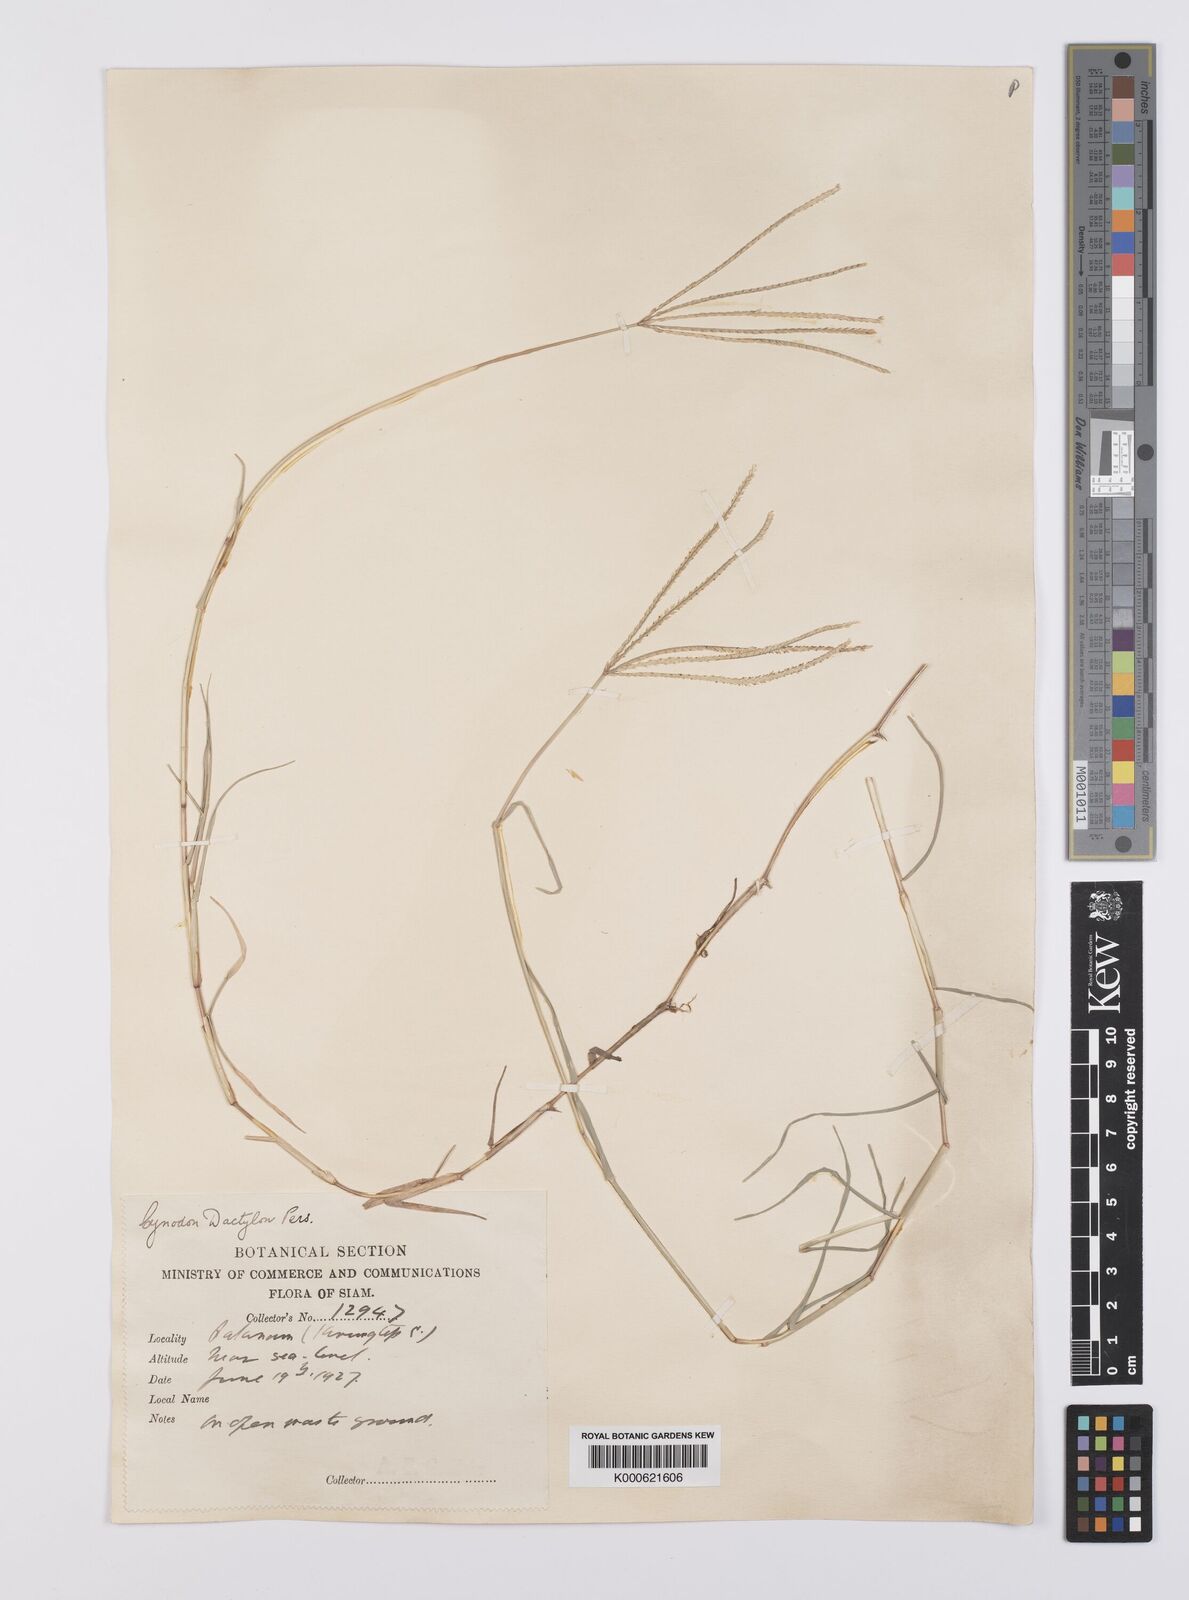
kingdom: Plantae
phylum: Tracheophyta
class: Liliopsida
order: Poales
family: Poaceae
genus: Cynodon
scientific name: Cynodon dactylon
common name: Bermuda grass
